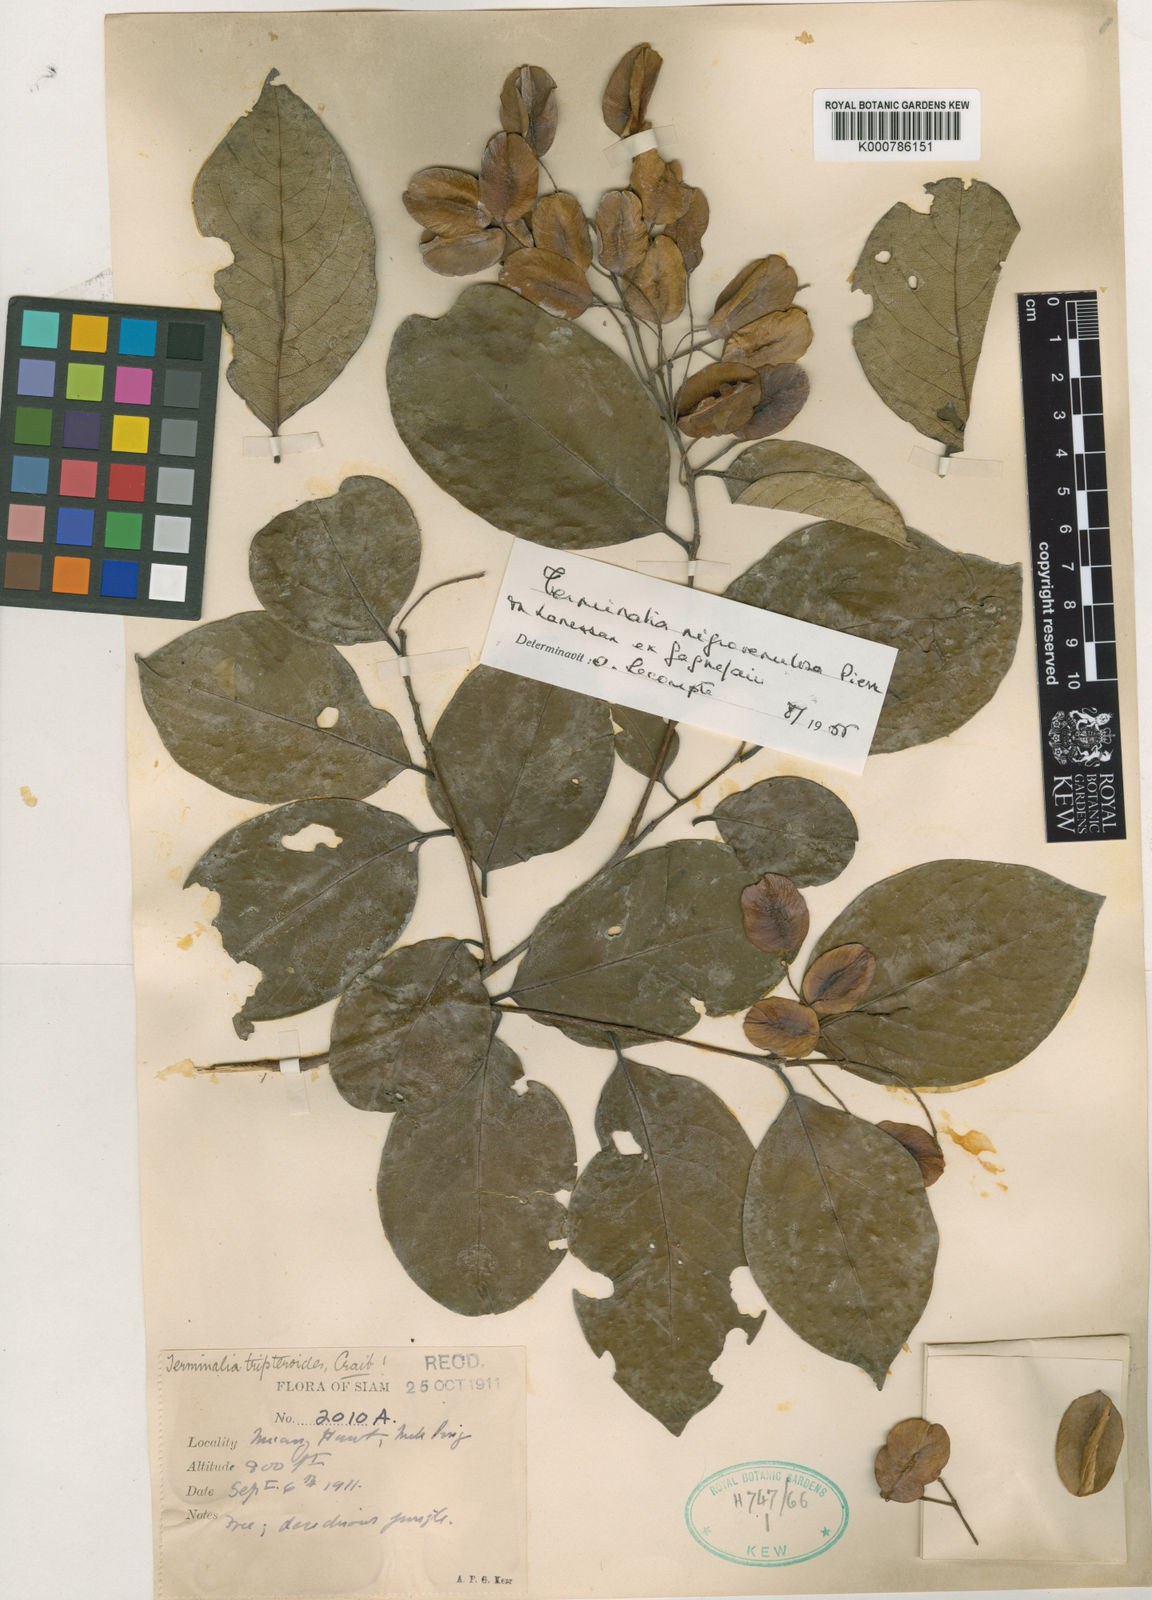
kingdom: Plantae
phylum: Tracheophyta
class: Magnoliopsida
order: Myrtales
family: Combretaceae
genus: Terminalia
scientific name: Terminalia triptera
